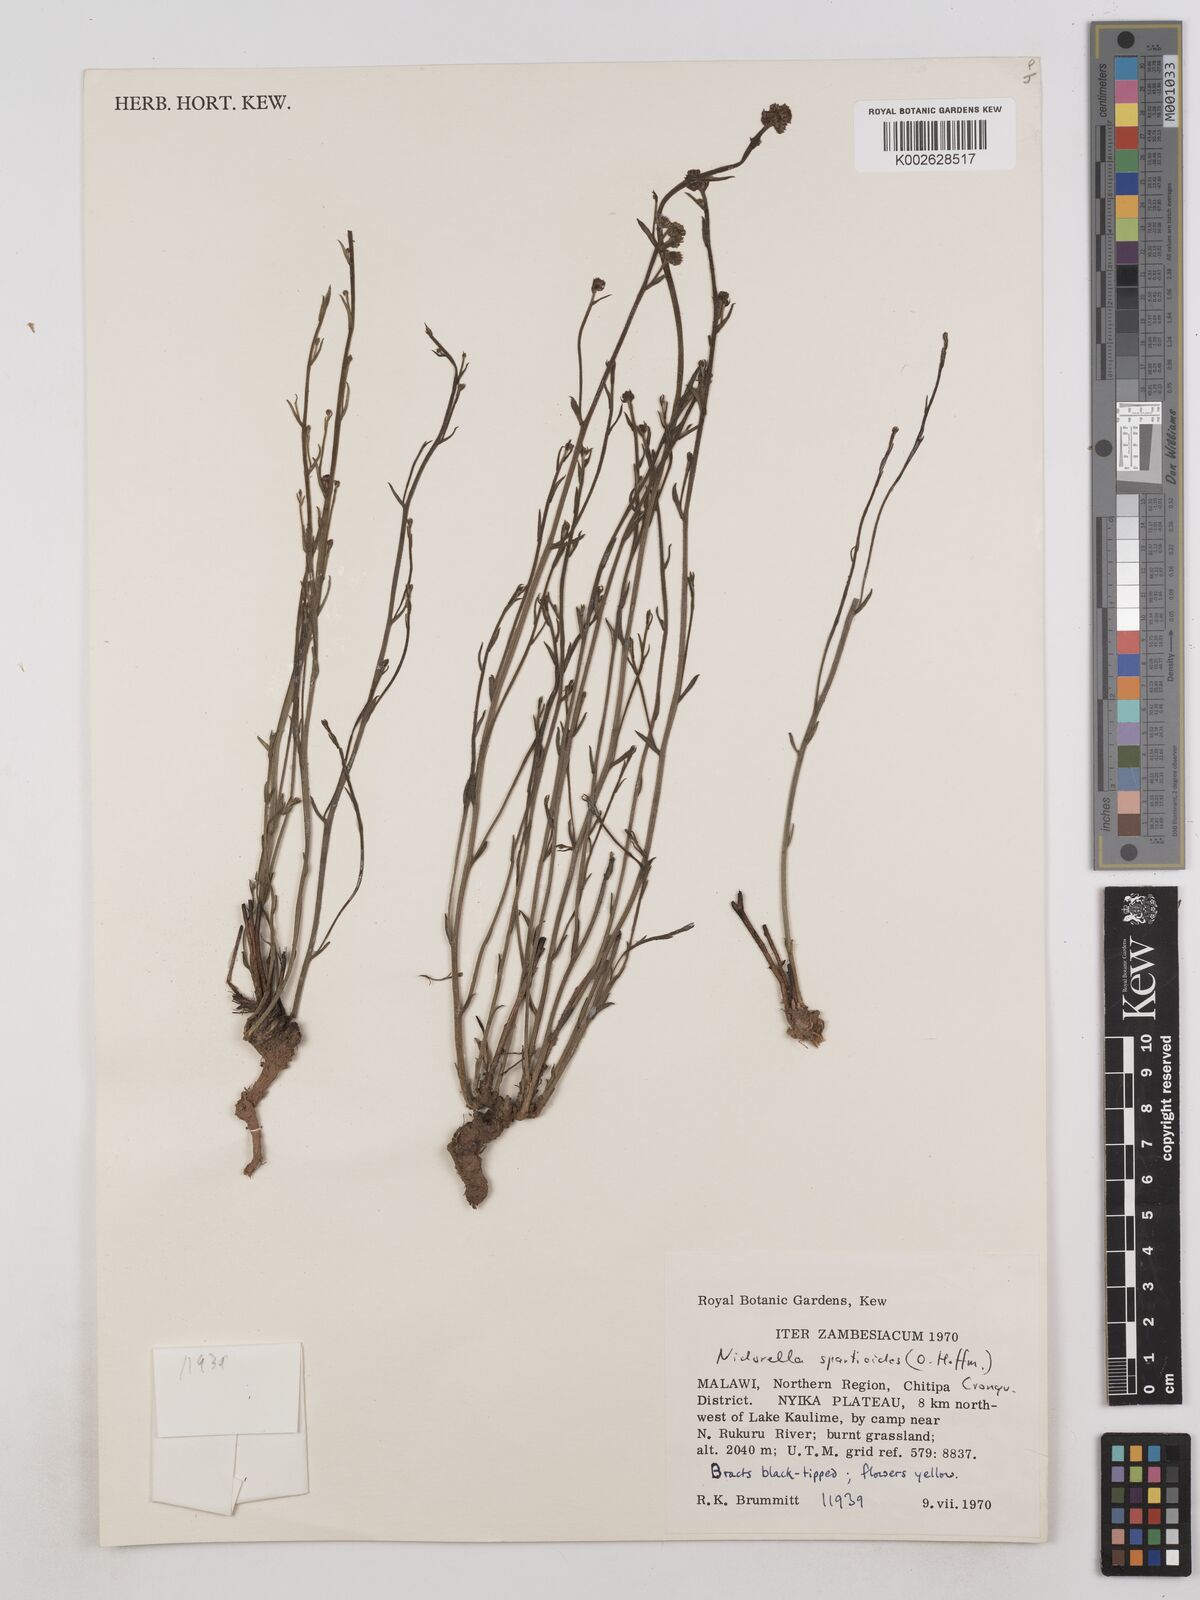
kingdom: Plantae
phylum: Tracheophyta
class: Magnoliopsida
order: Asterales
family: Asteraceae
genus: Nidorella
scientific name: Nidorella spartioides
